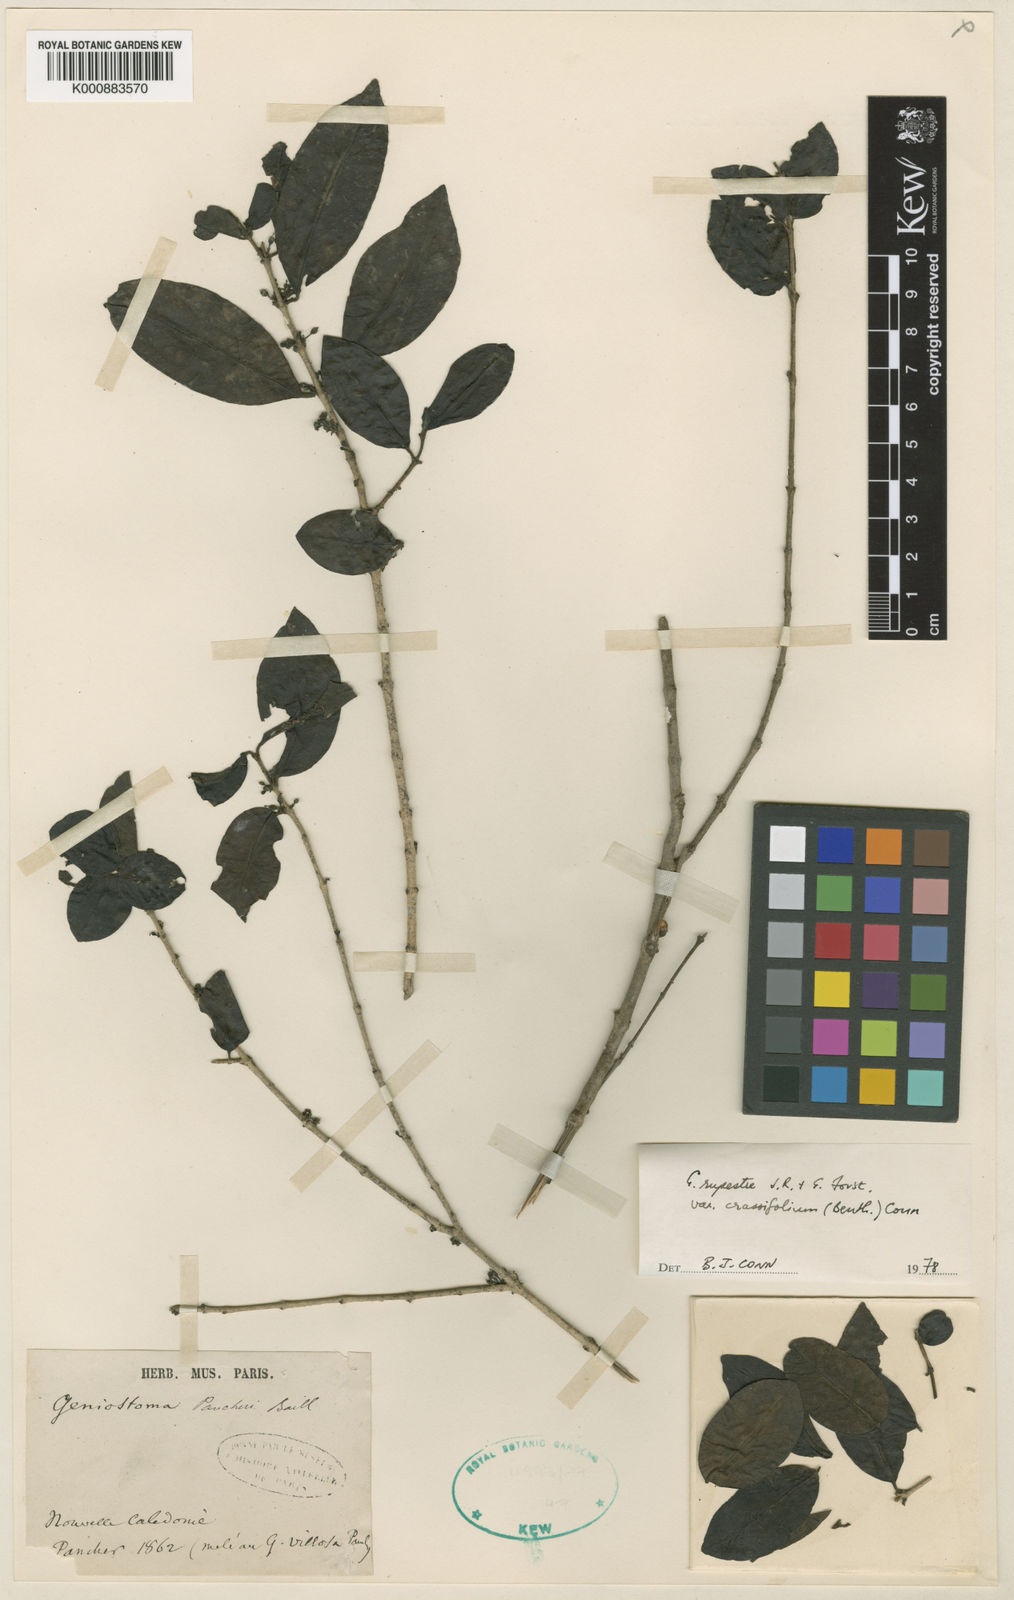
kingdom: Plantae
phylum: Tracheophyta
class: Magnoliopsida
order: Gentianales
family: Loganiaceae
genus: Geniostoma
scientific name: Geniostoma rupestre
